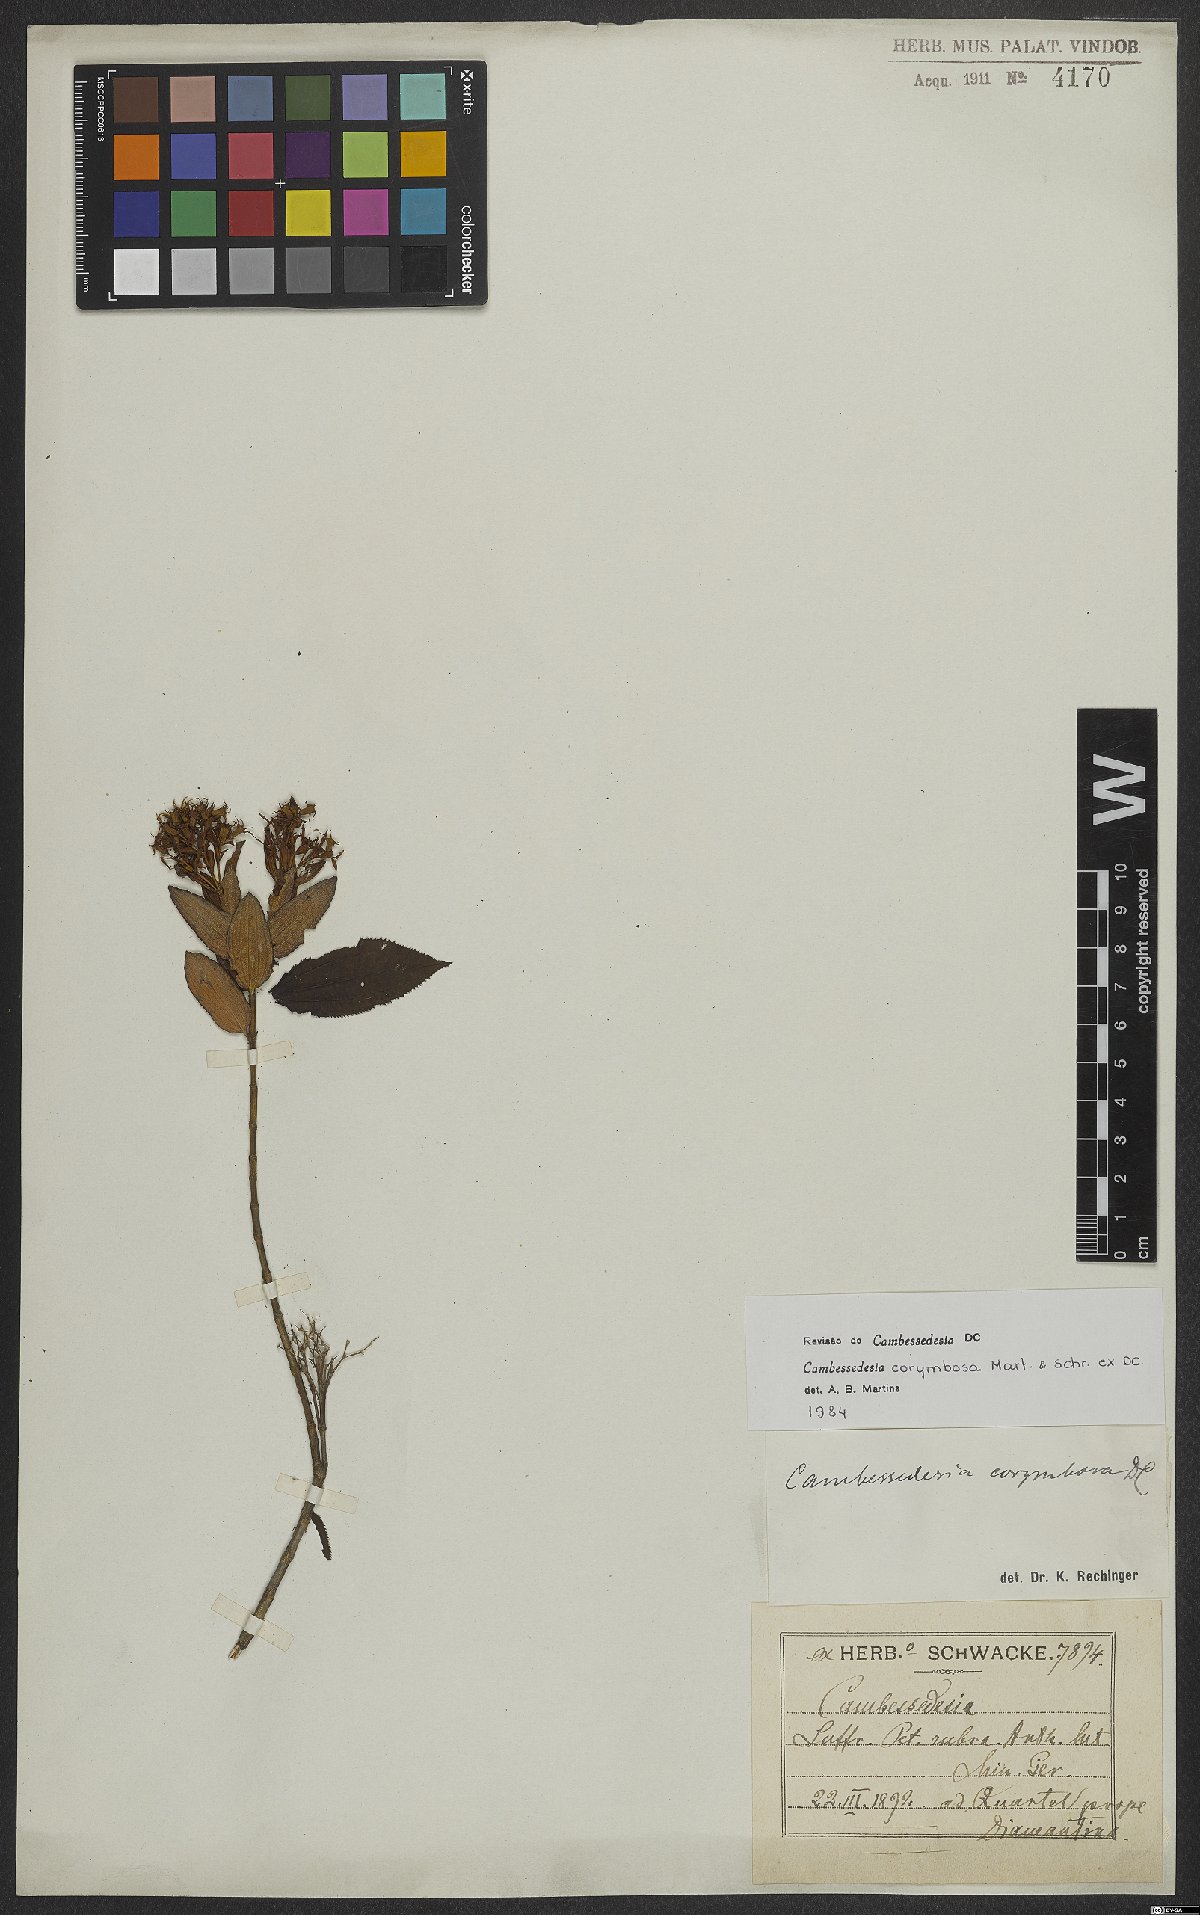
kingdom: Plantae
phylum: Tracheophyta
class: Magnoliopsida
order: Myrtales
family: Melastomataceae
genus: Cambessedesia
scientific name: Cambessedesia corymbosa
